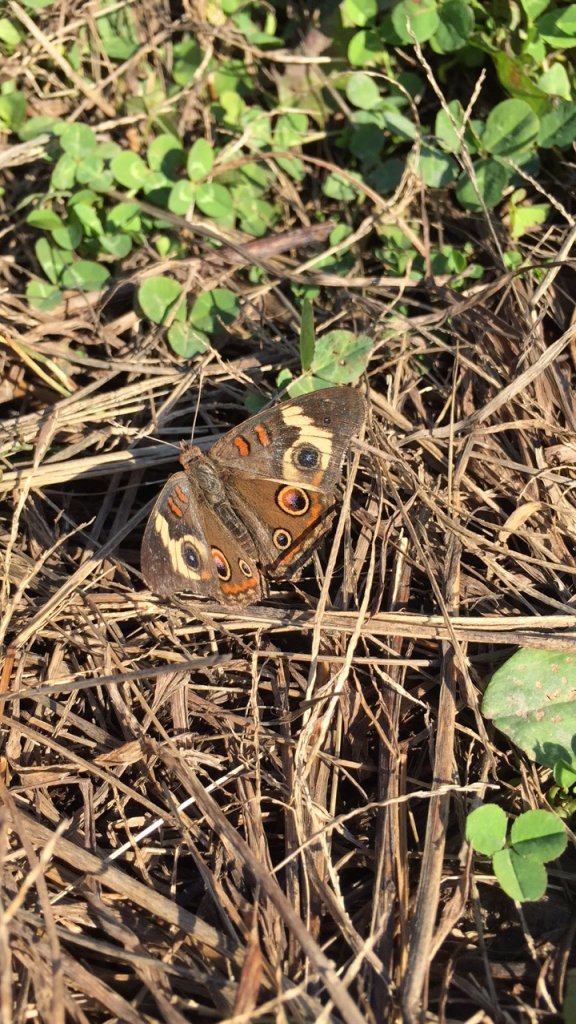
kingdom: Animalia
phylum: Arthropoda
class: Insecta
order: Lepidoptera
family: Nymphalidae
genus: Junonia
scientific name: Junonia coenia
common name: Common Buckeye
